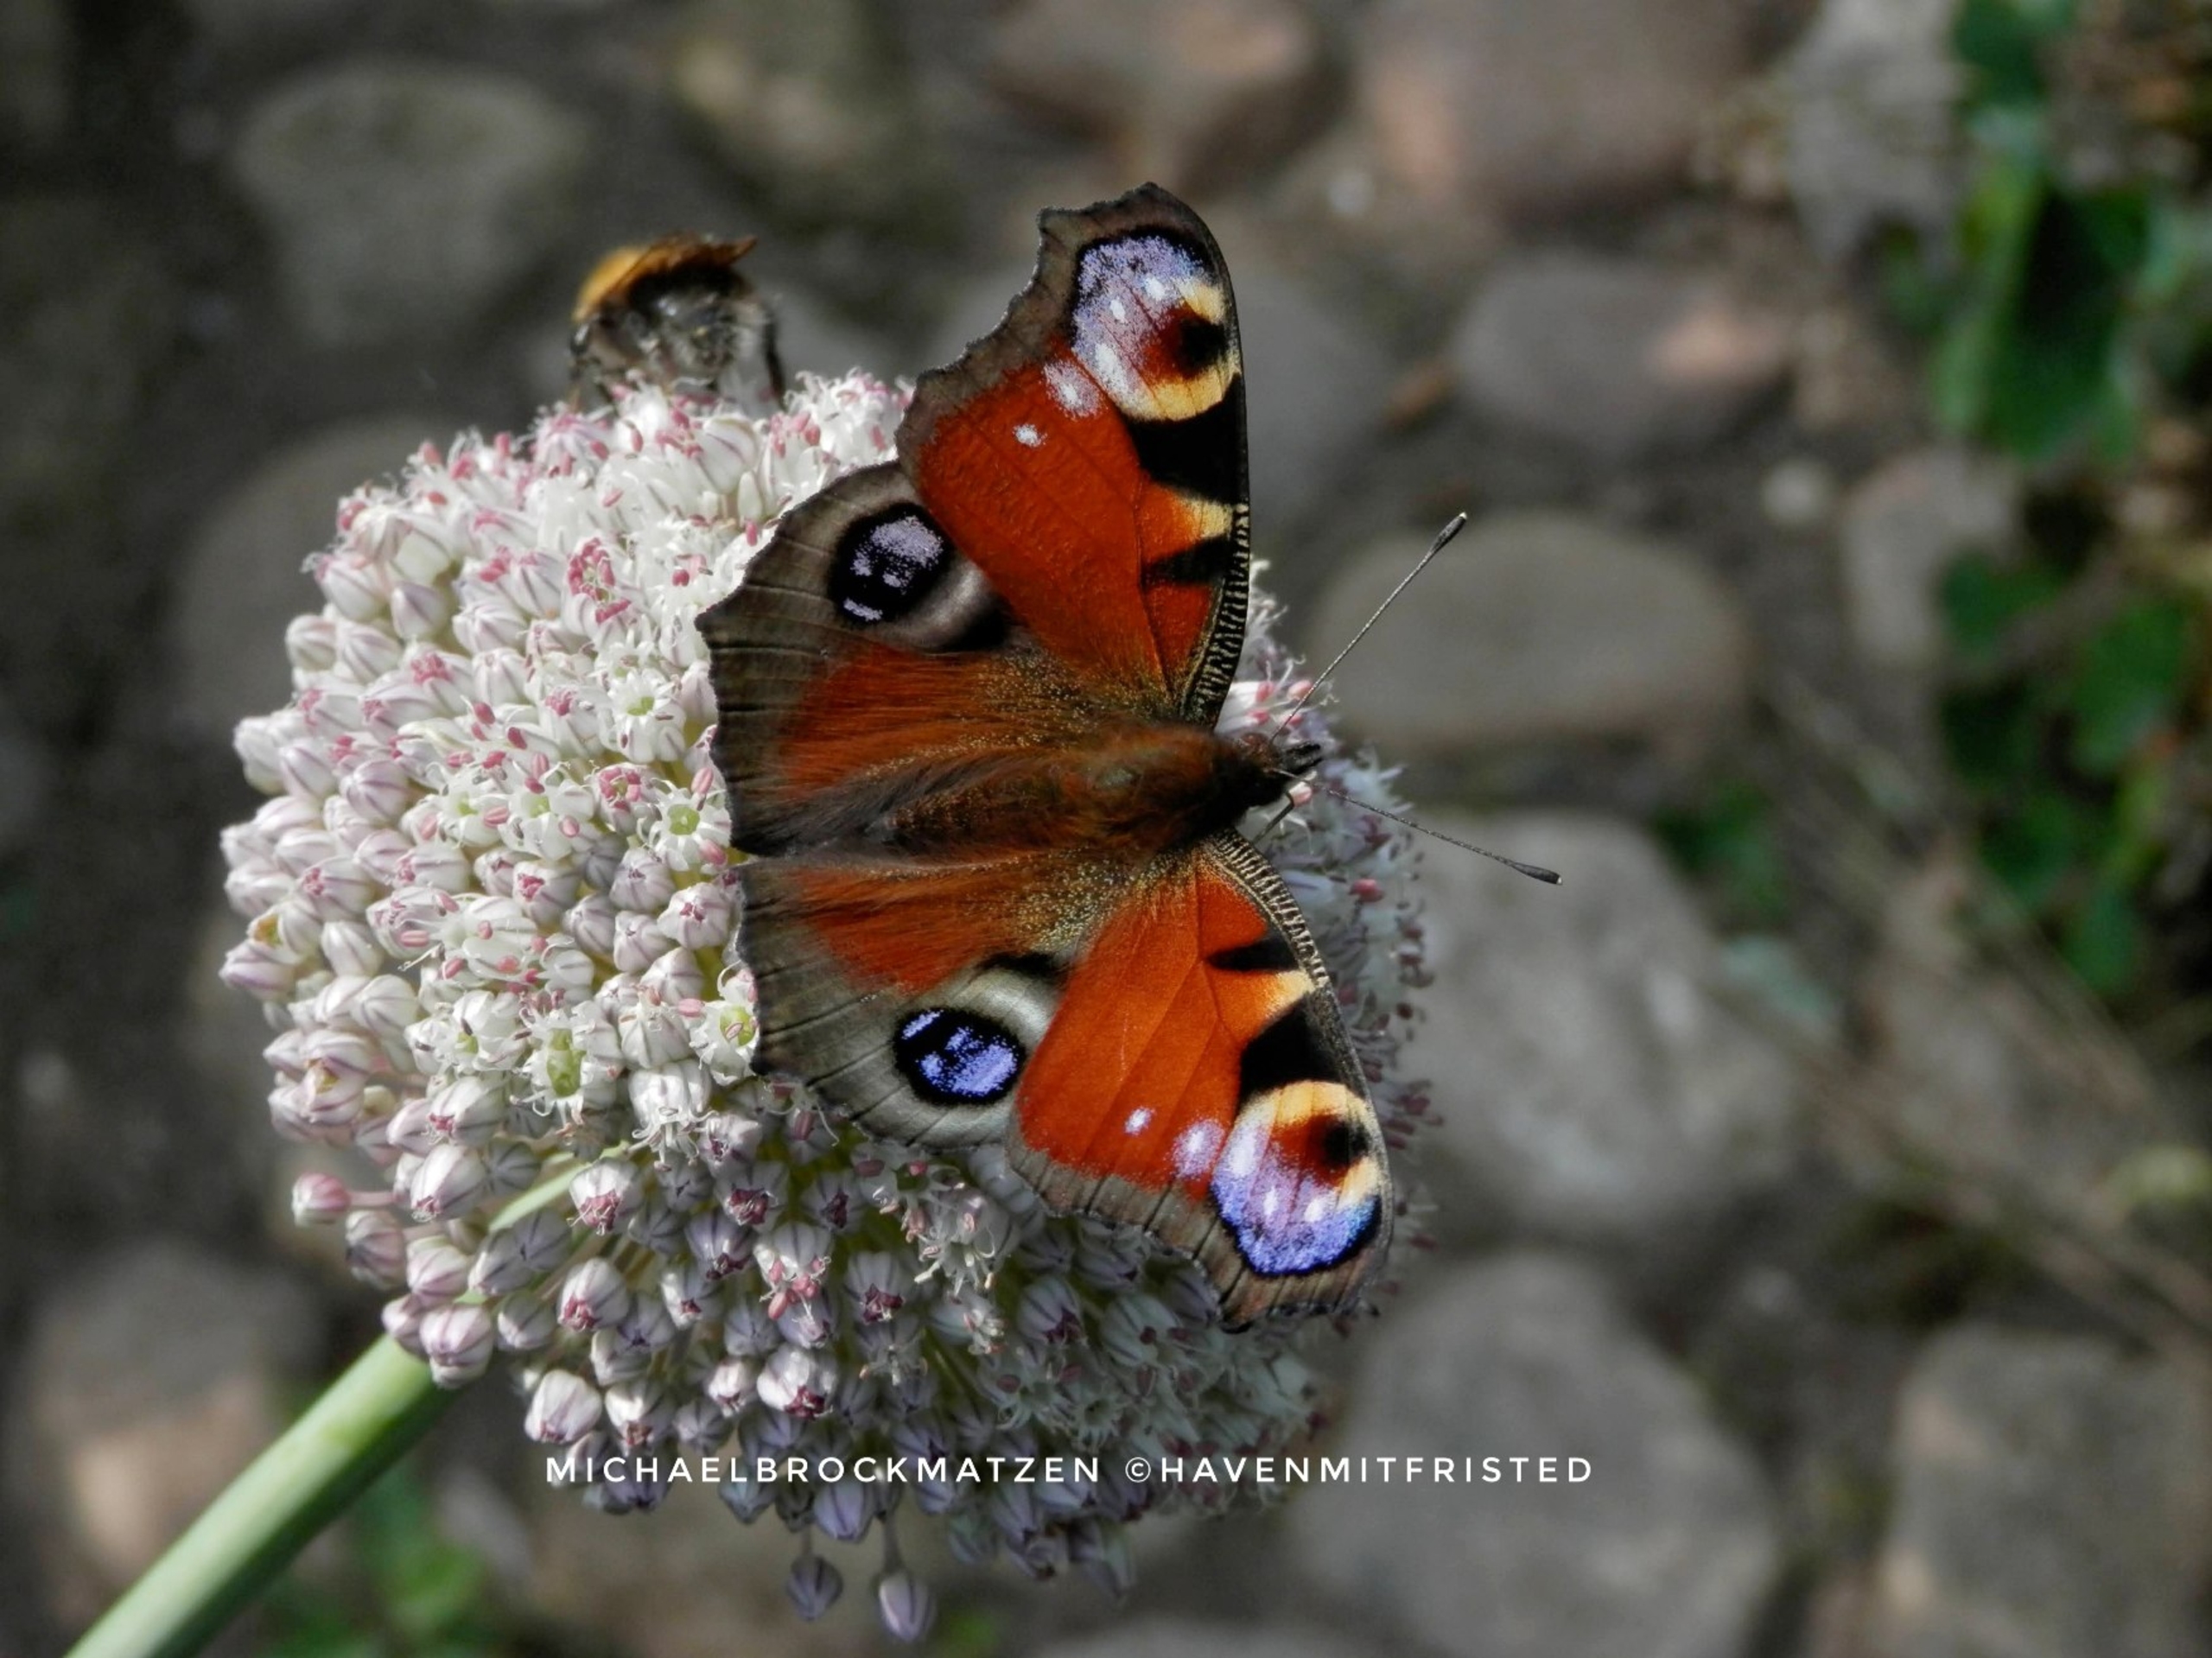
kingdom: Animalia
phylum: Arthropoda
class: Insecta
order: Lepidoptera
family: Nymphalidae
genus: Aglais
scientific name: Aglais io
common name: Dagpåfugleøje
